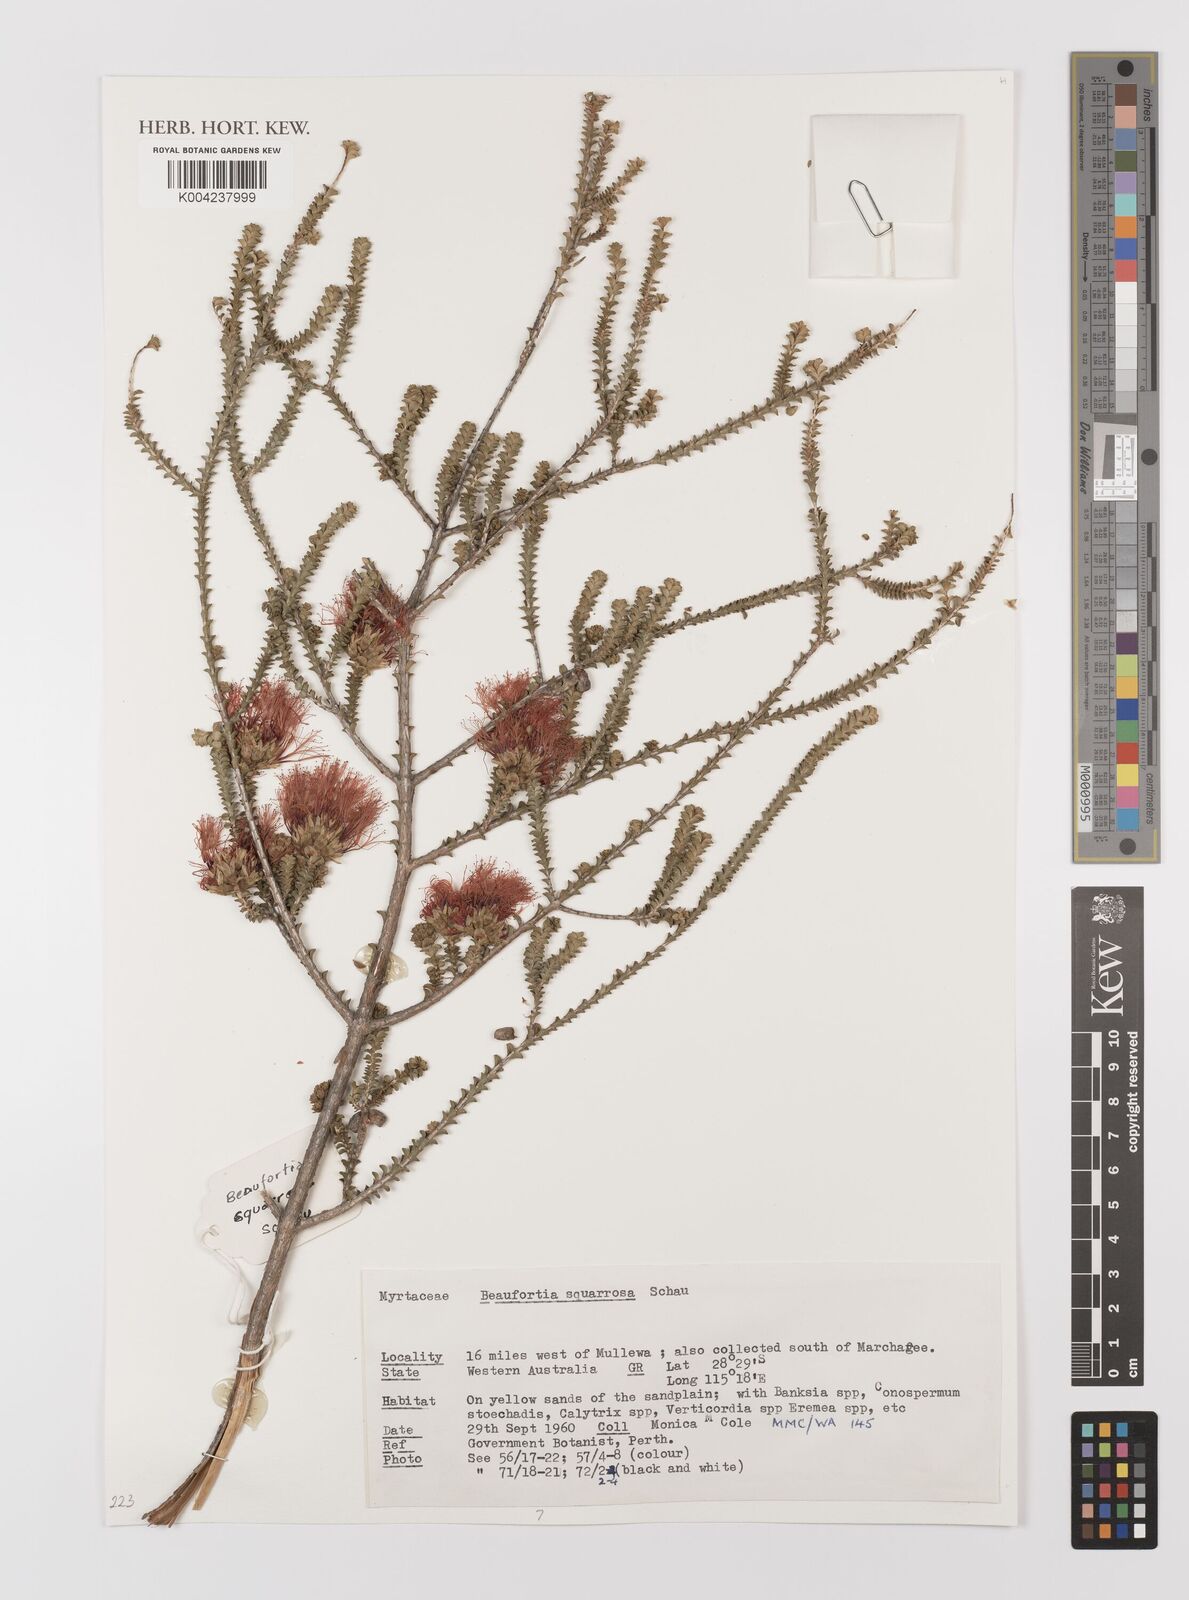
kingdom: Plantae
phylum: Tracheophyta
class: Magnoliopsida
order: Myrtales
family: Myrtaceae
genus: Melaleuca
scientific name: Melaleuca pulcherrima
